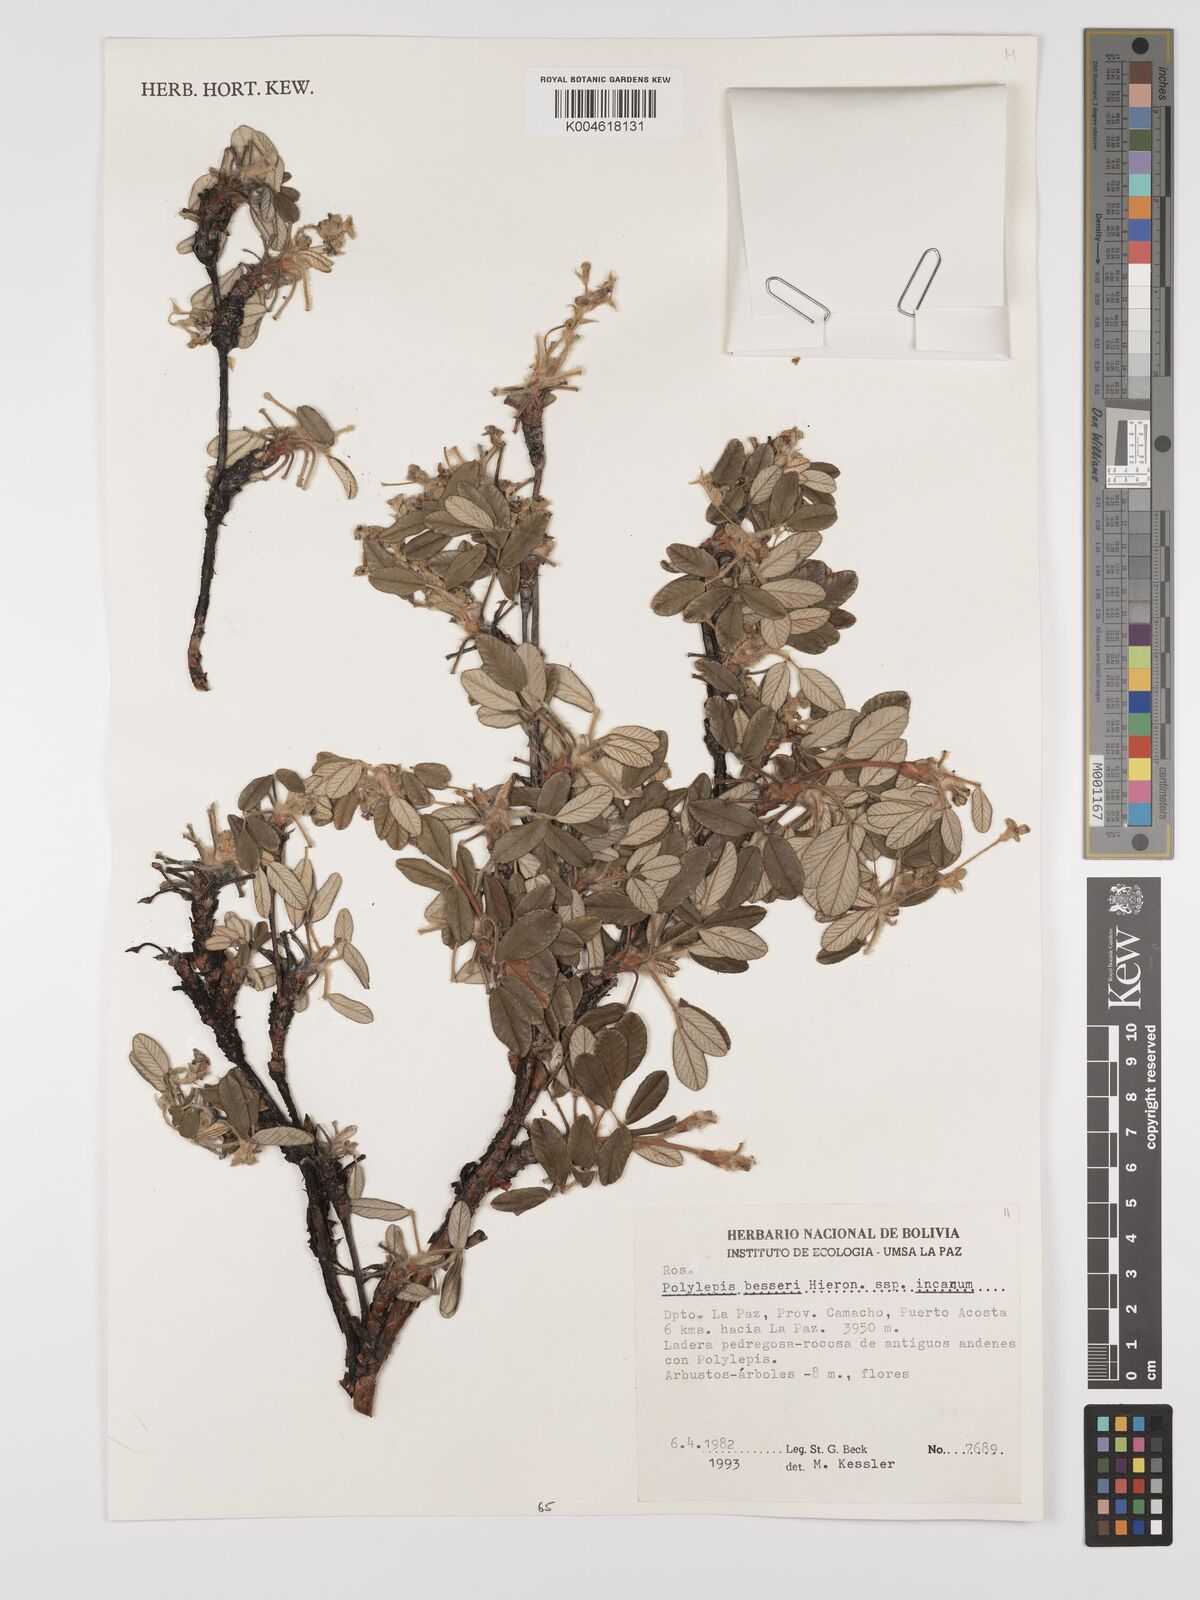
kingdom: Plantae
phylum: Tracheophyta
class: Magnoliopsida
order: Rosales
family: Rosaceae
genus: Polylepis
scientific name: Polylepis
